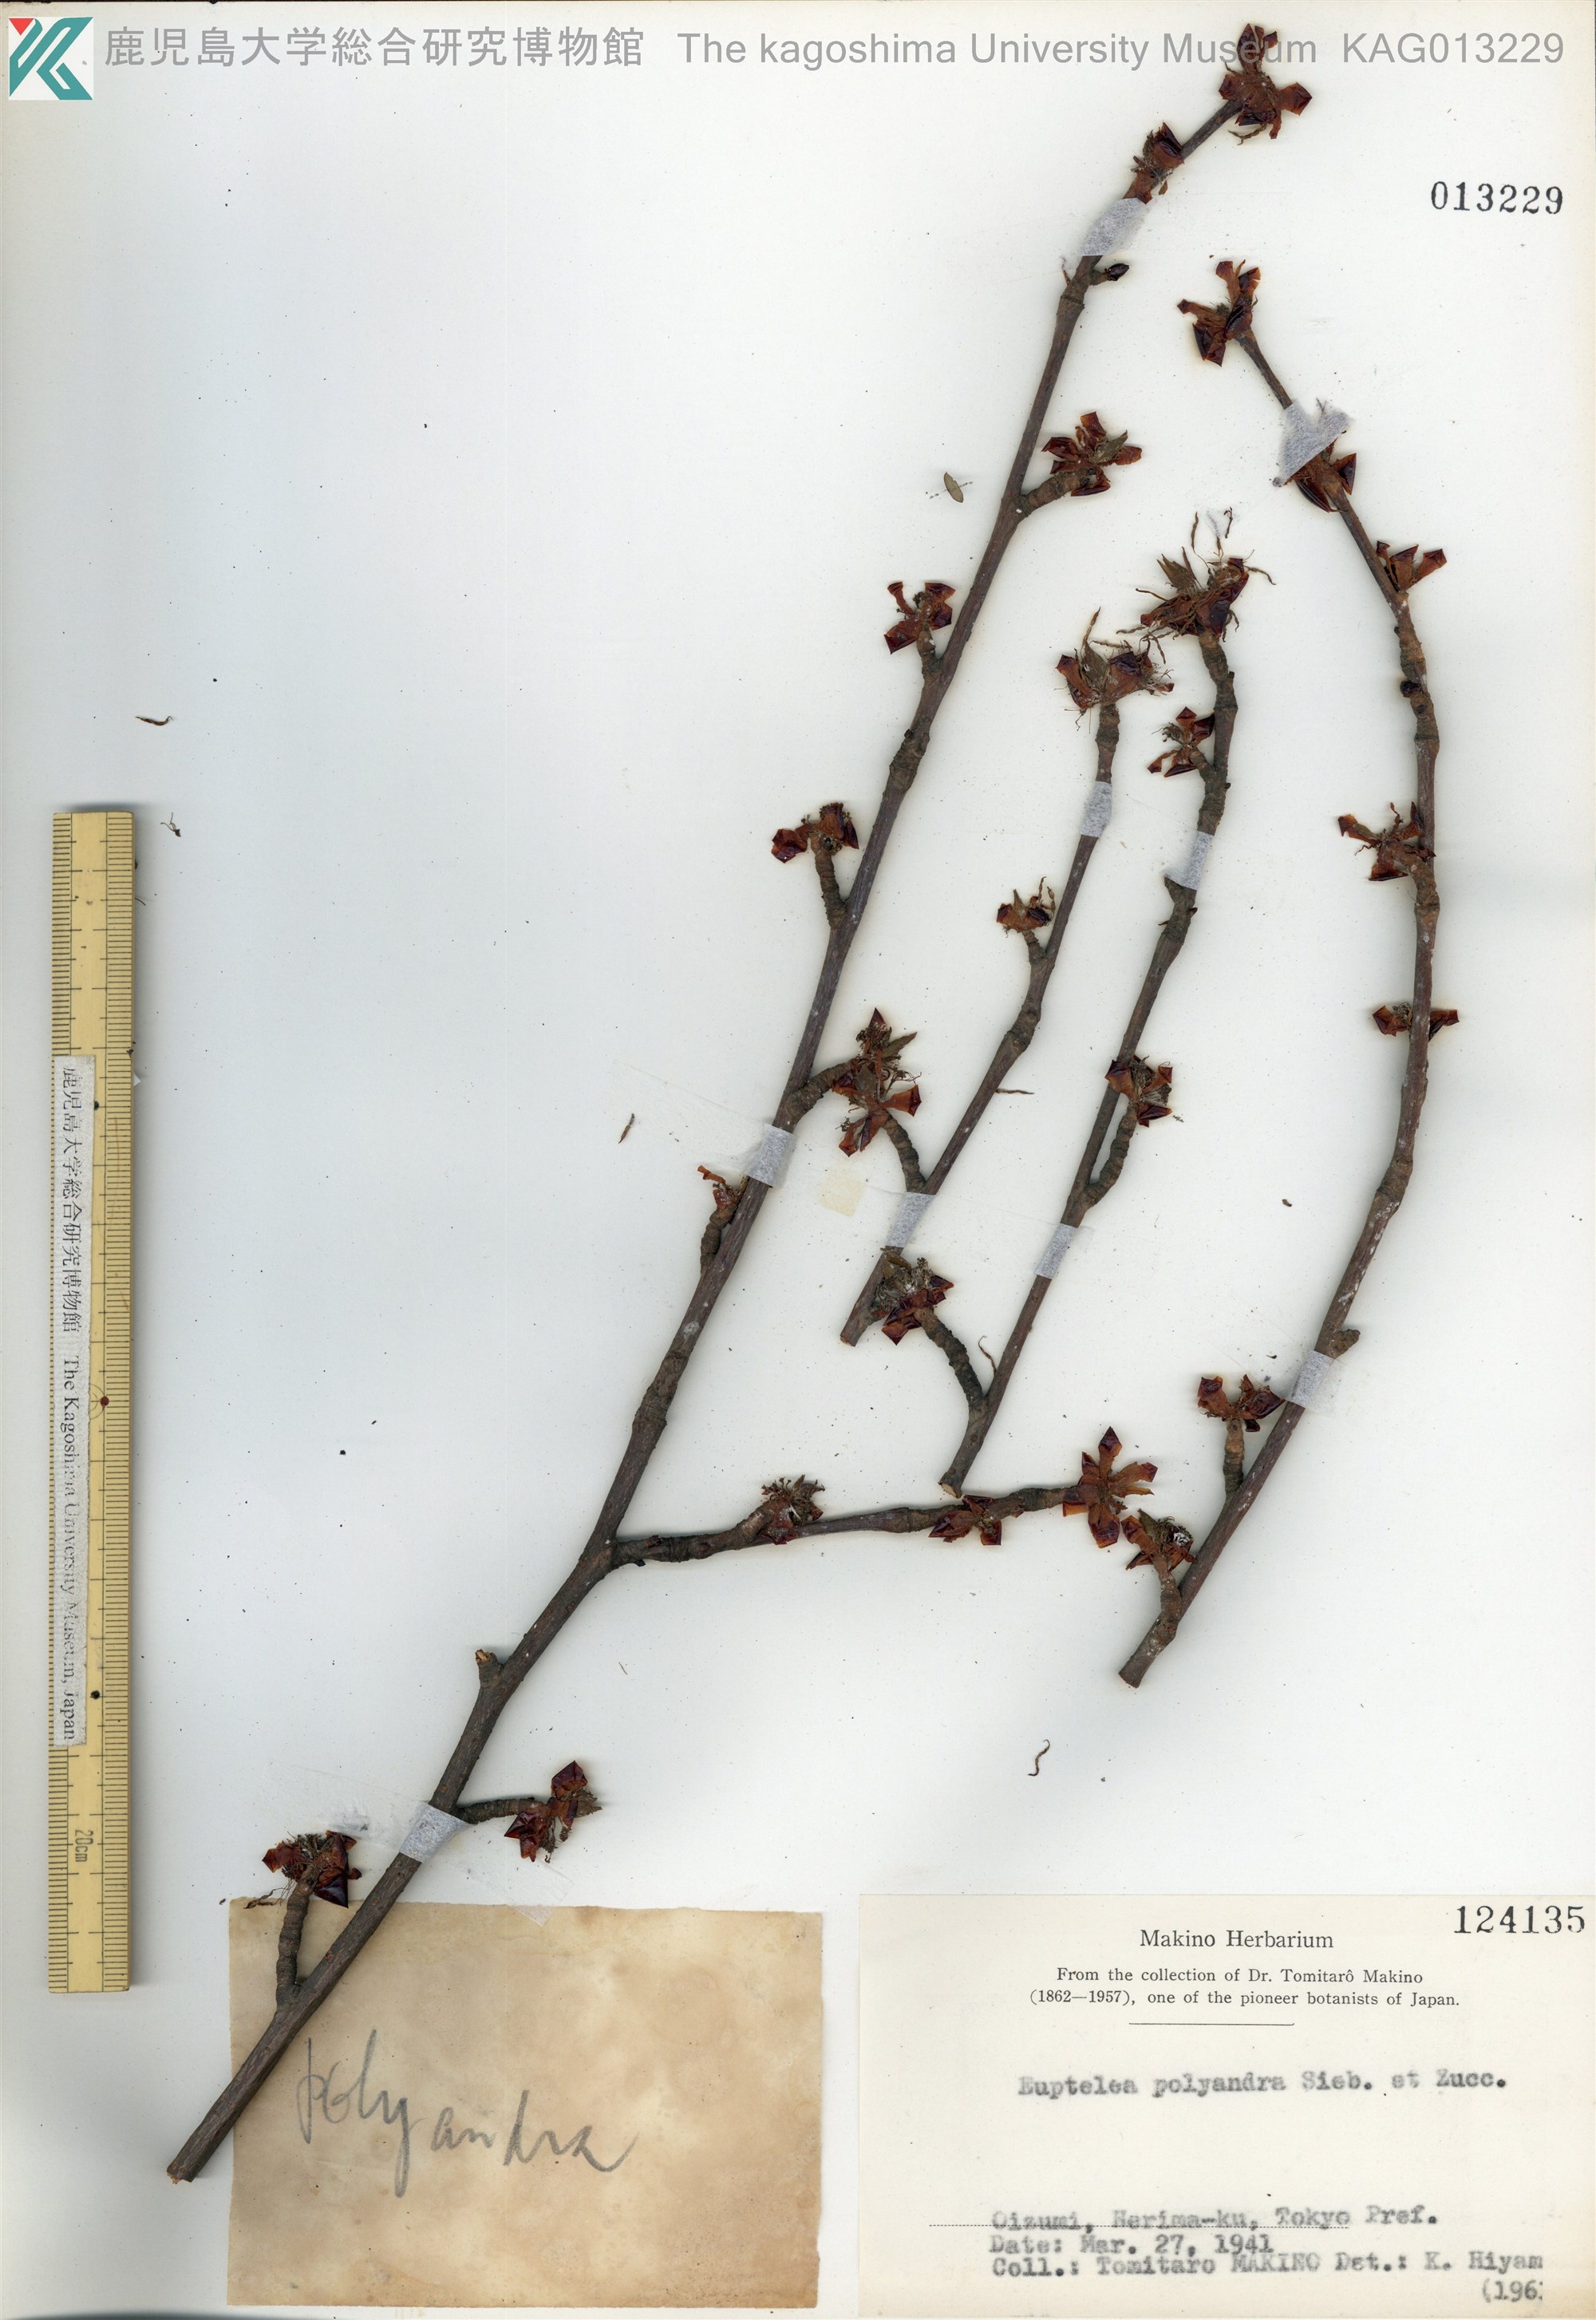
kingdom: Plantae
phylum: Tracheophyta
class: Magnoliopsida
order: Ranunculales
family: Eupteleaceae
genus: Euptelea
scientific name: Euptelea polyandra
